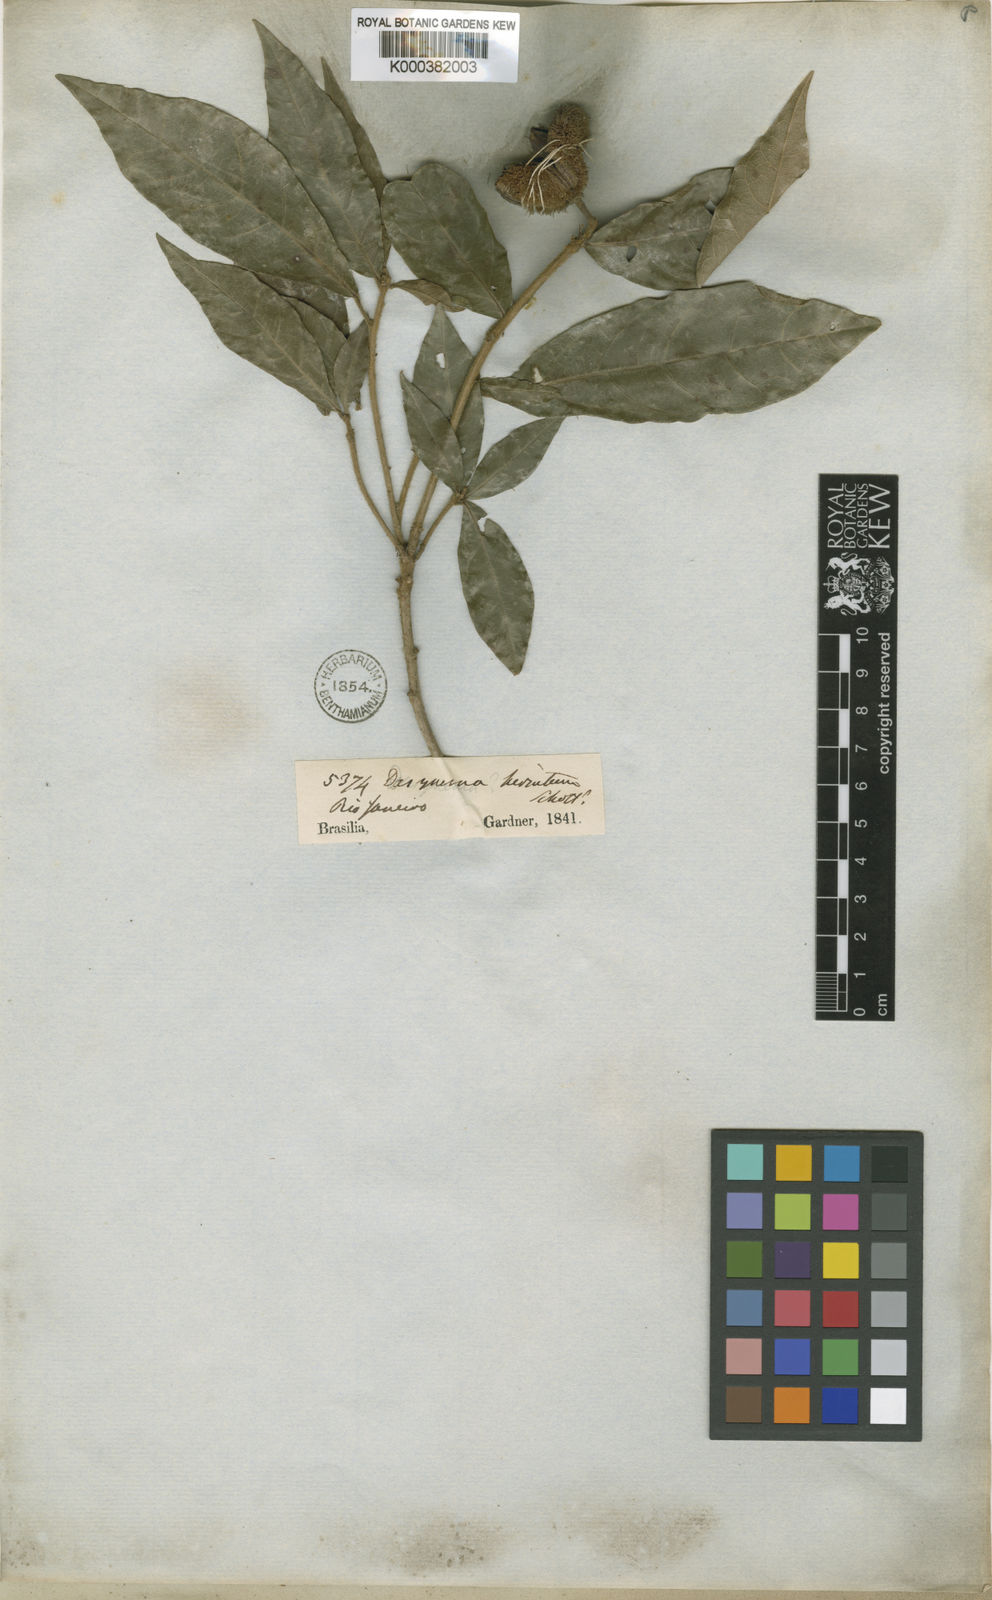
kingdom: Plantae
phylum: Tracheophyta
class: Magnoliopsida
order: Oxalidales
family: Elaeocarpaceae
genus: Sloanea
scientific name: Sloanea hirsuta
